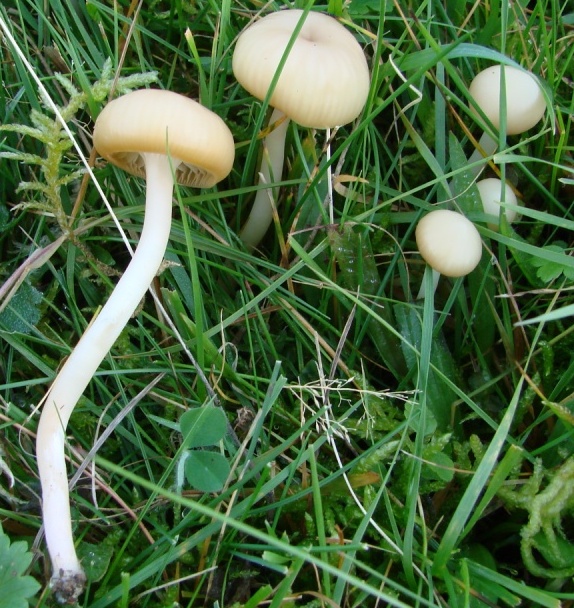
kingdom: Fungi
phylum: Basidiomycota
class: Agaricomycetes
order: Agaricales
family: Hygrophoraceae
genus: Cuphophyllus
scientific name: Cuphophyllus virgineus
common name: isabella-vokshat
